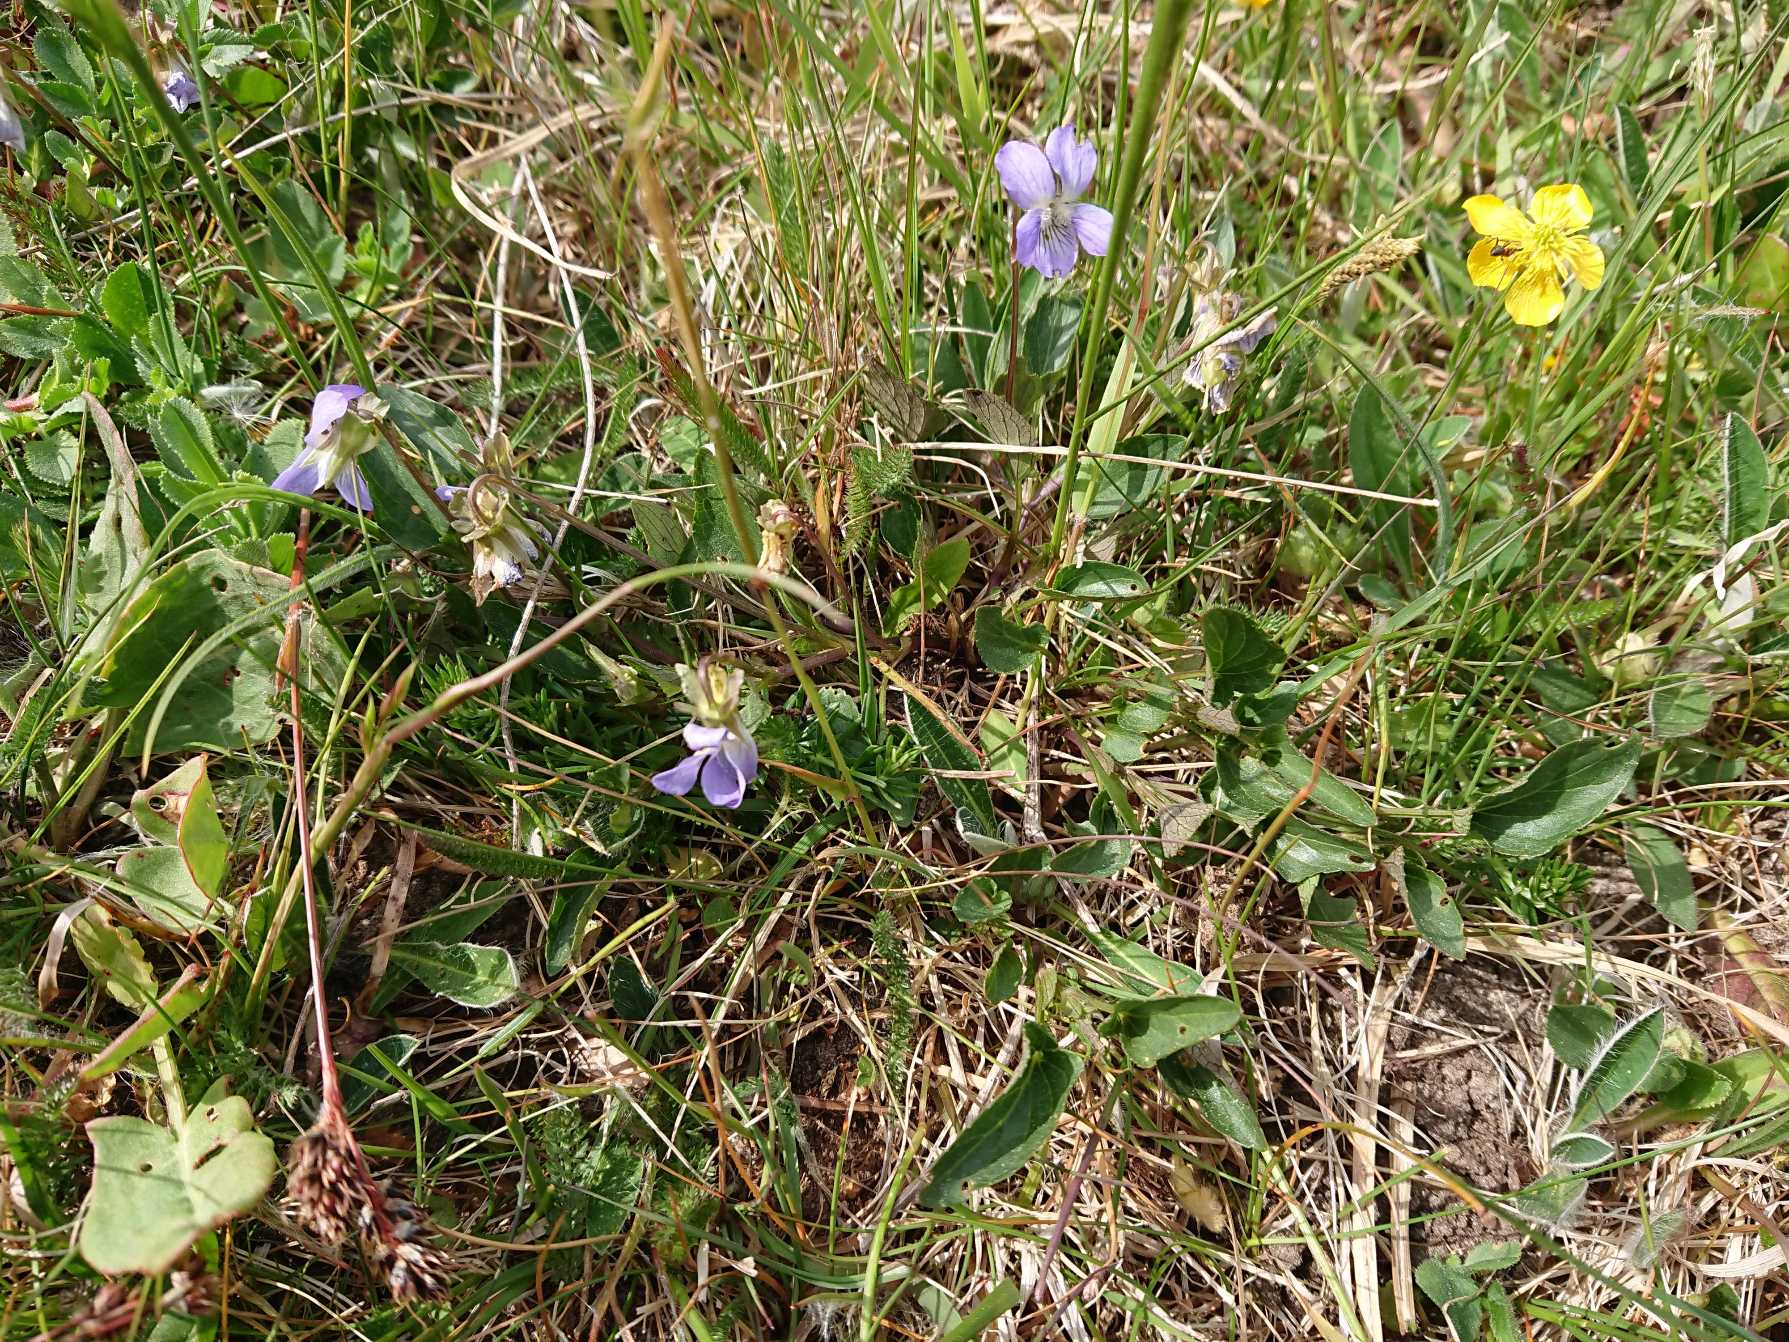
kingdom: Plantae
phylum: Tracheophyta
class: Magnoliopsida
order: Malpighiales
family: Violaceae
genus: Viola
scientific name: Viola canina
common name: Hunde-viol
